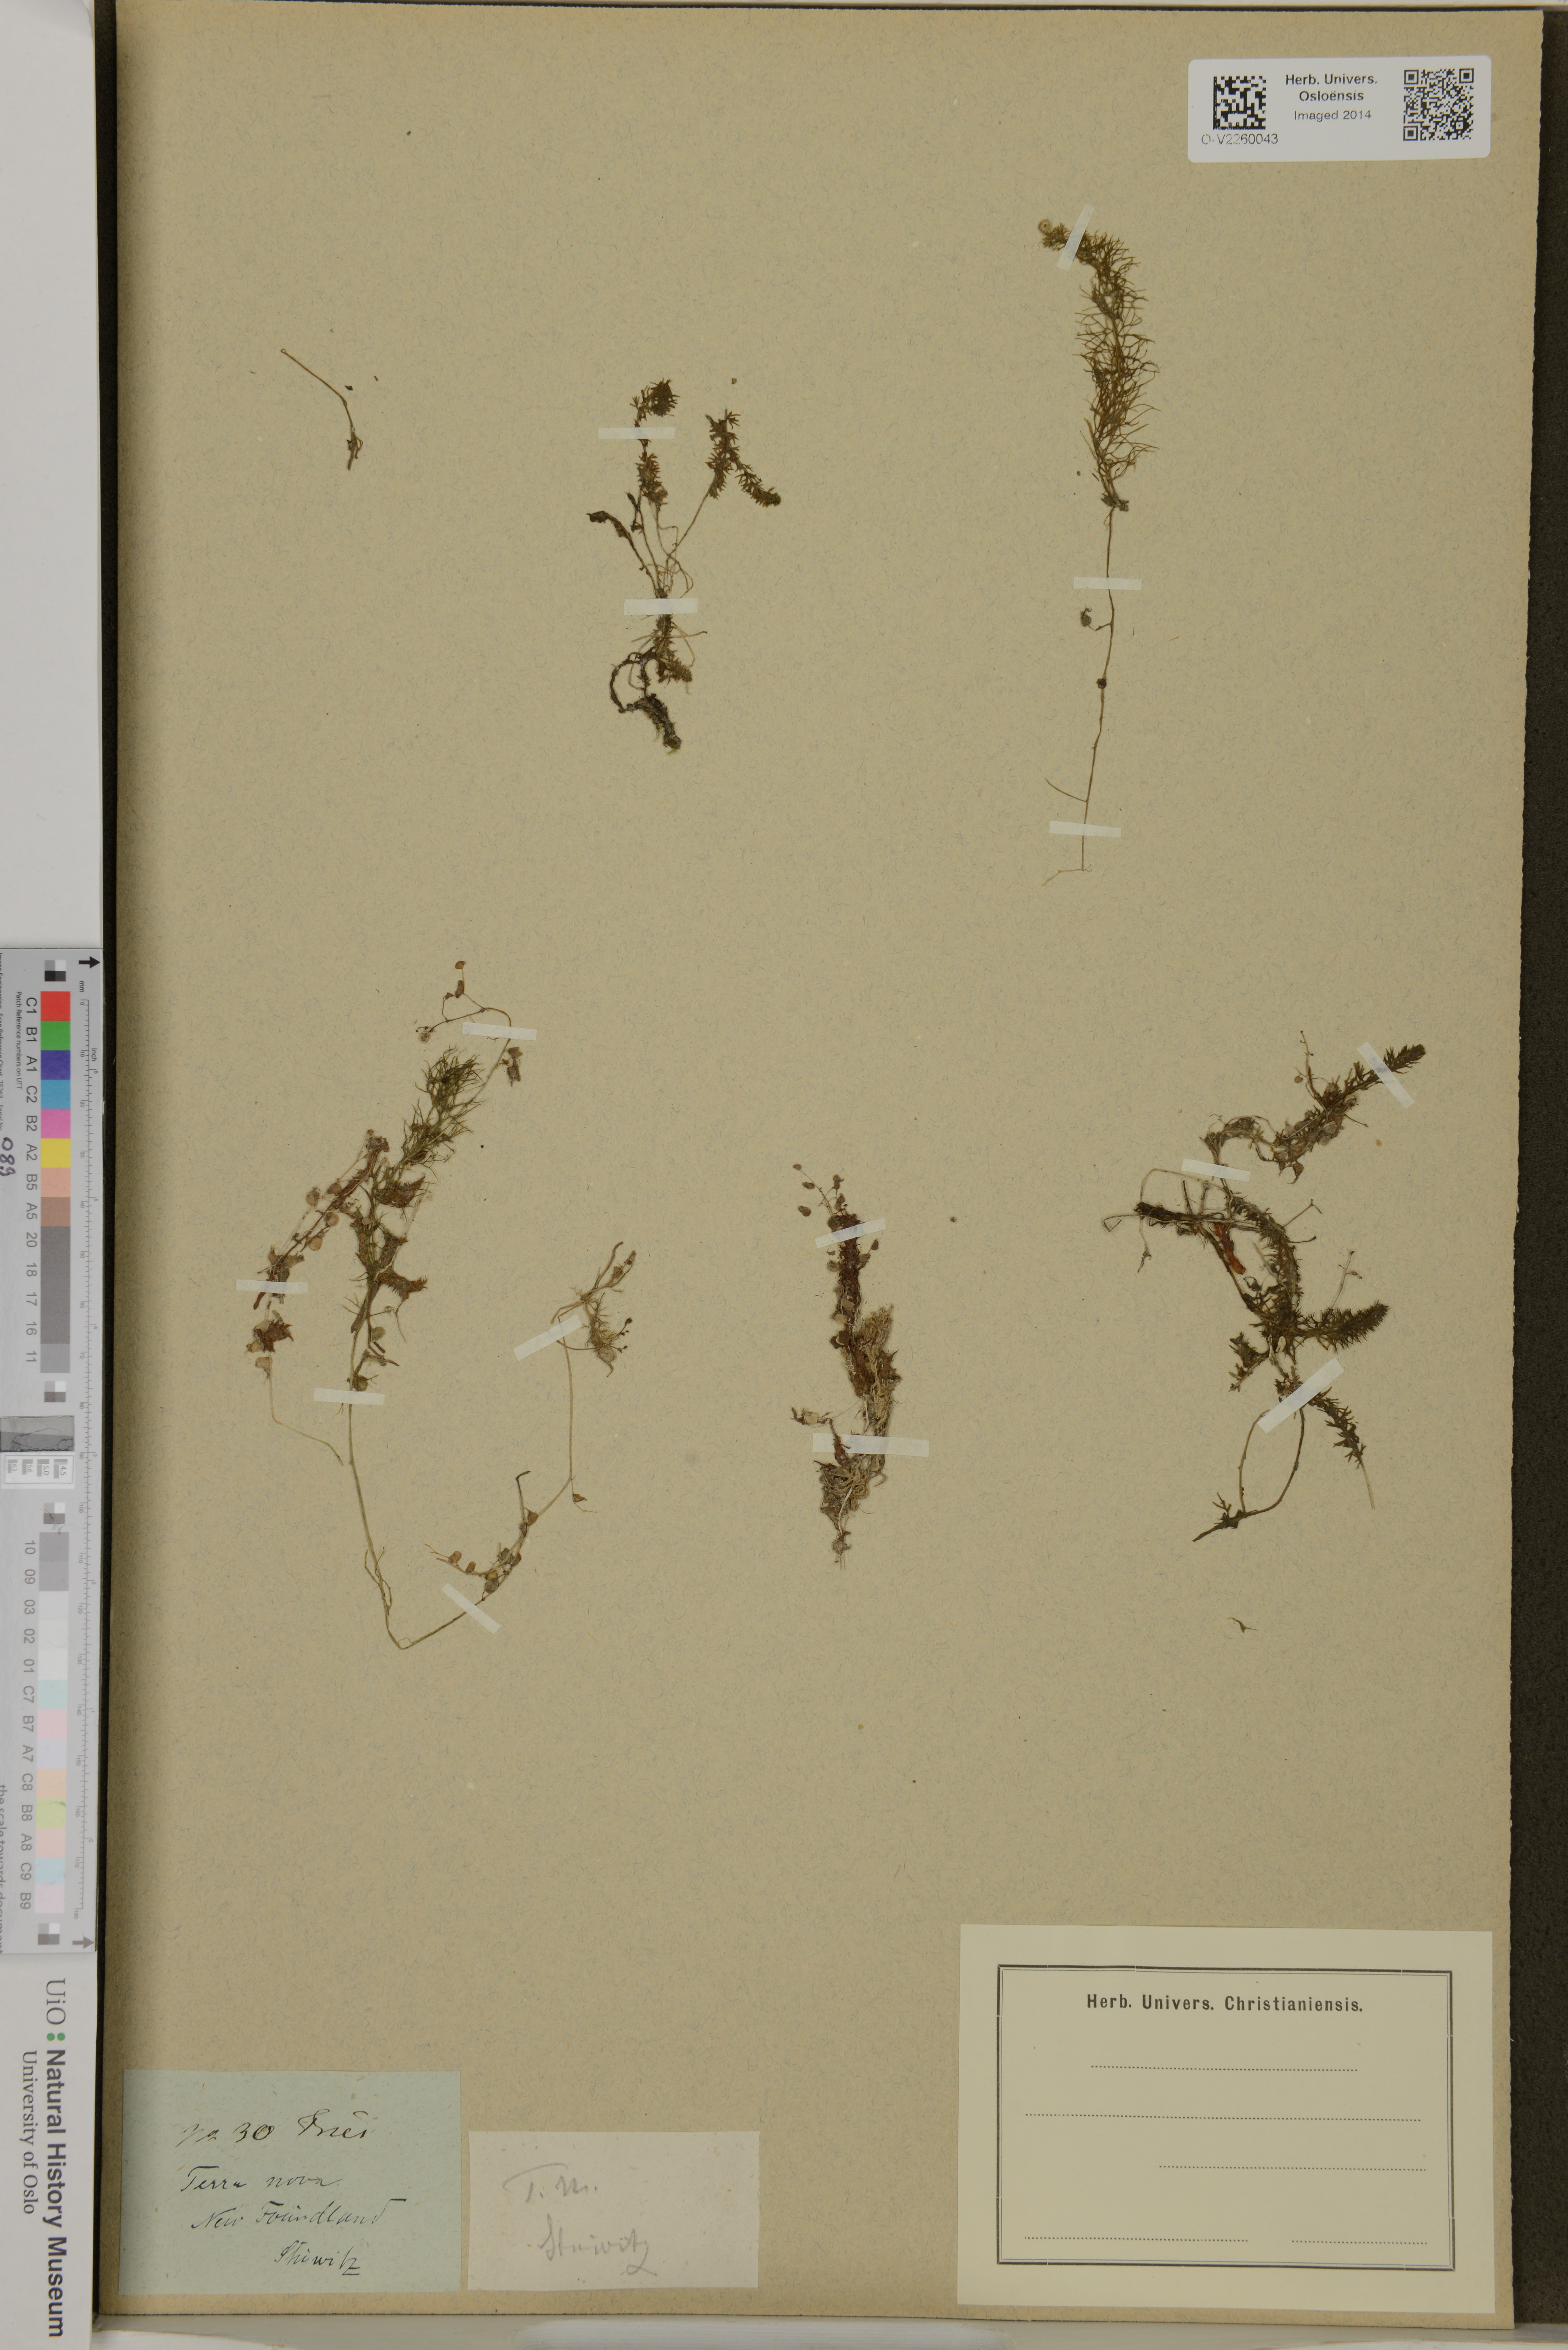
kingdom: Plantae
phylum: Tracheophyta
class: Magnoliopsida
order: Lamiales
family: Lentibulariaceae
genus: Utricularia
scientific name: Utricularia
